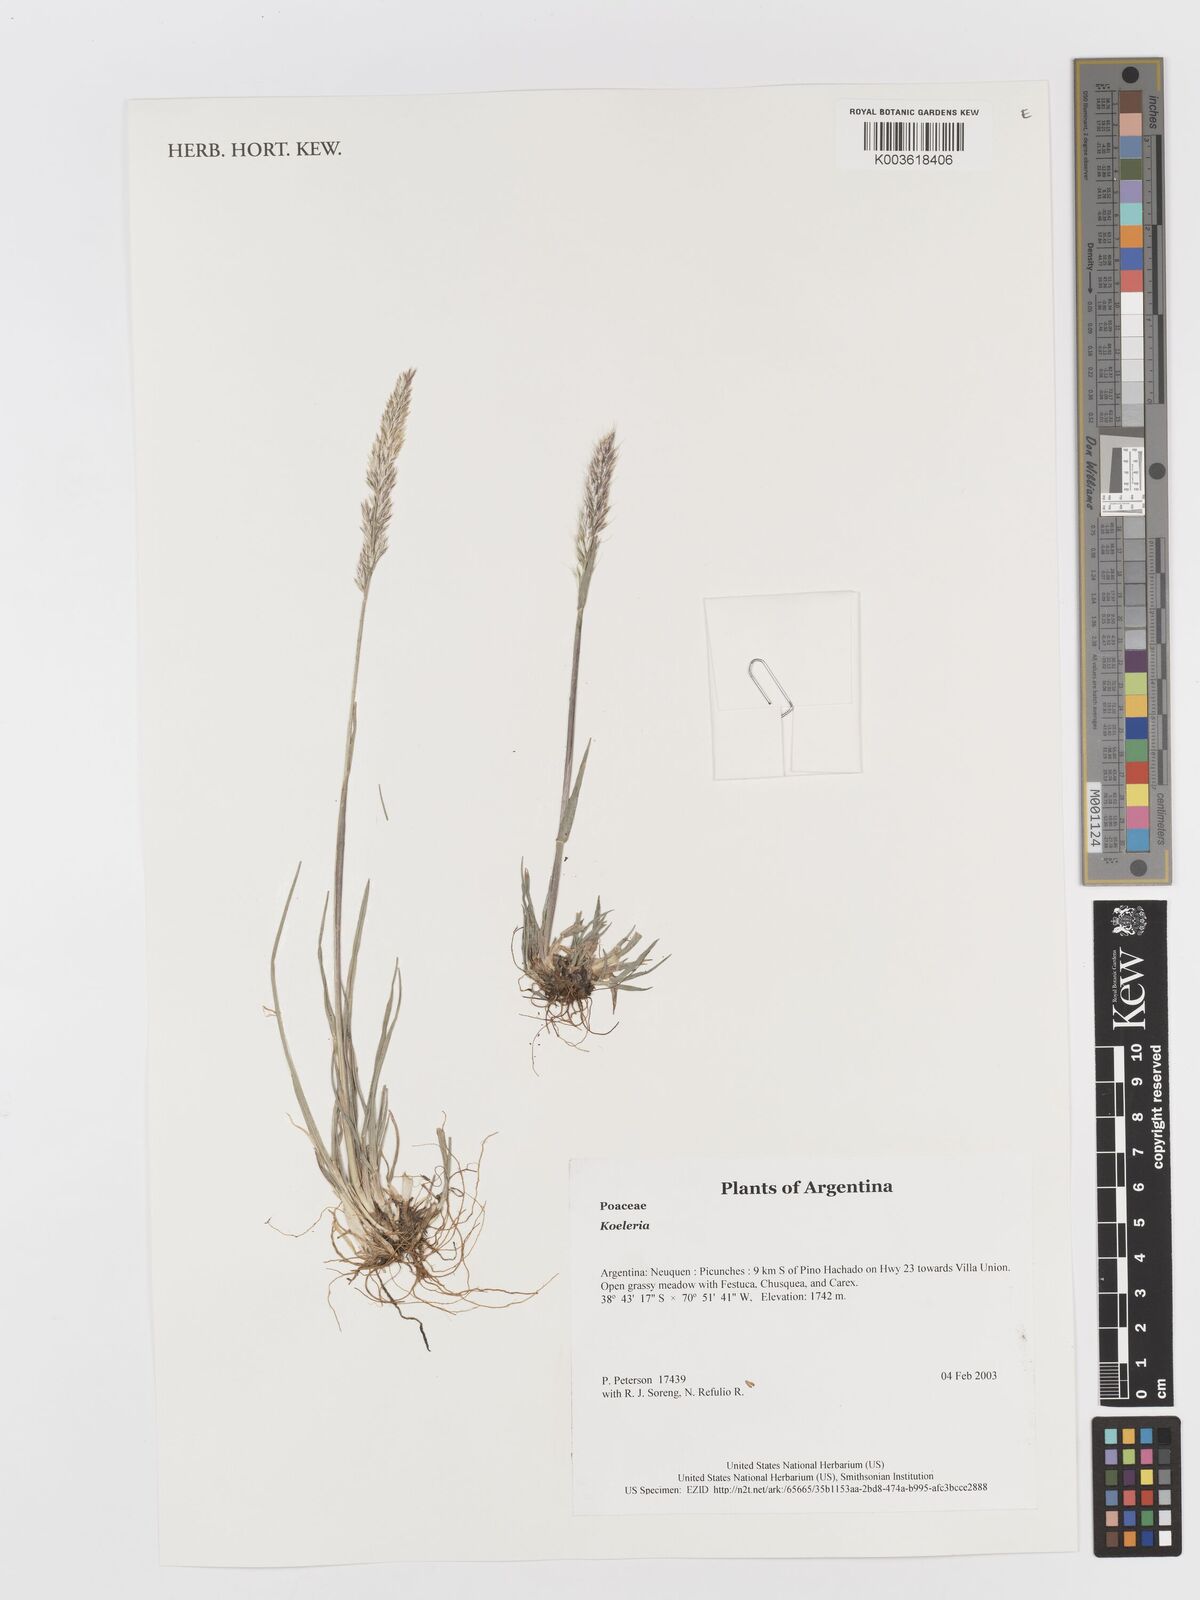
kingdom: Plantae
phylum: Tracheophyta
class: Liliopsida
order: Poales
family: Poaceae
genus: Koeleria
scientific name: Koeleria
